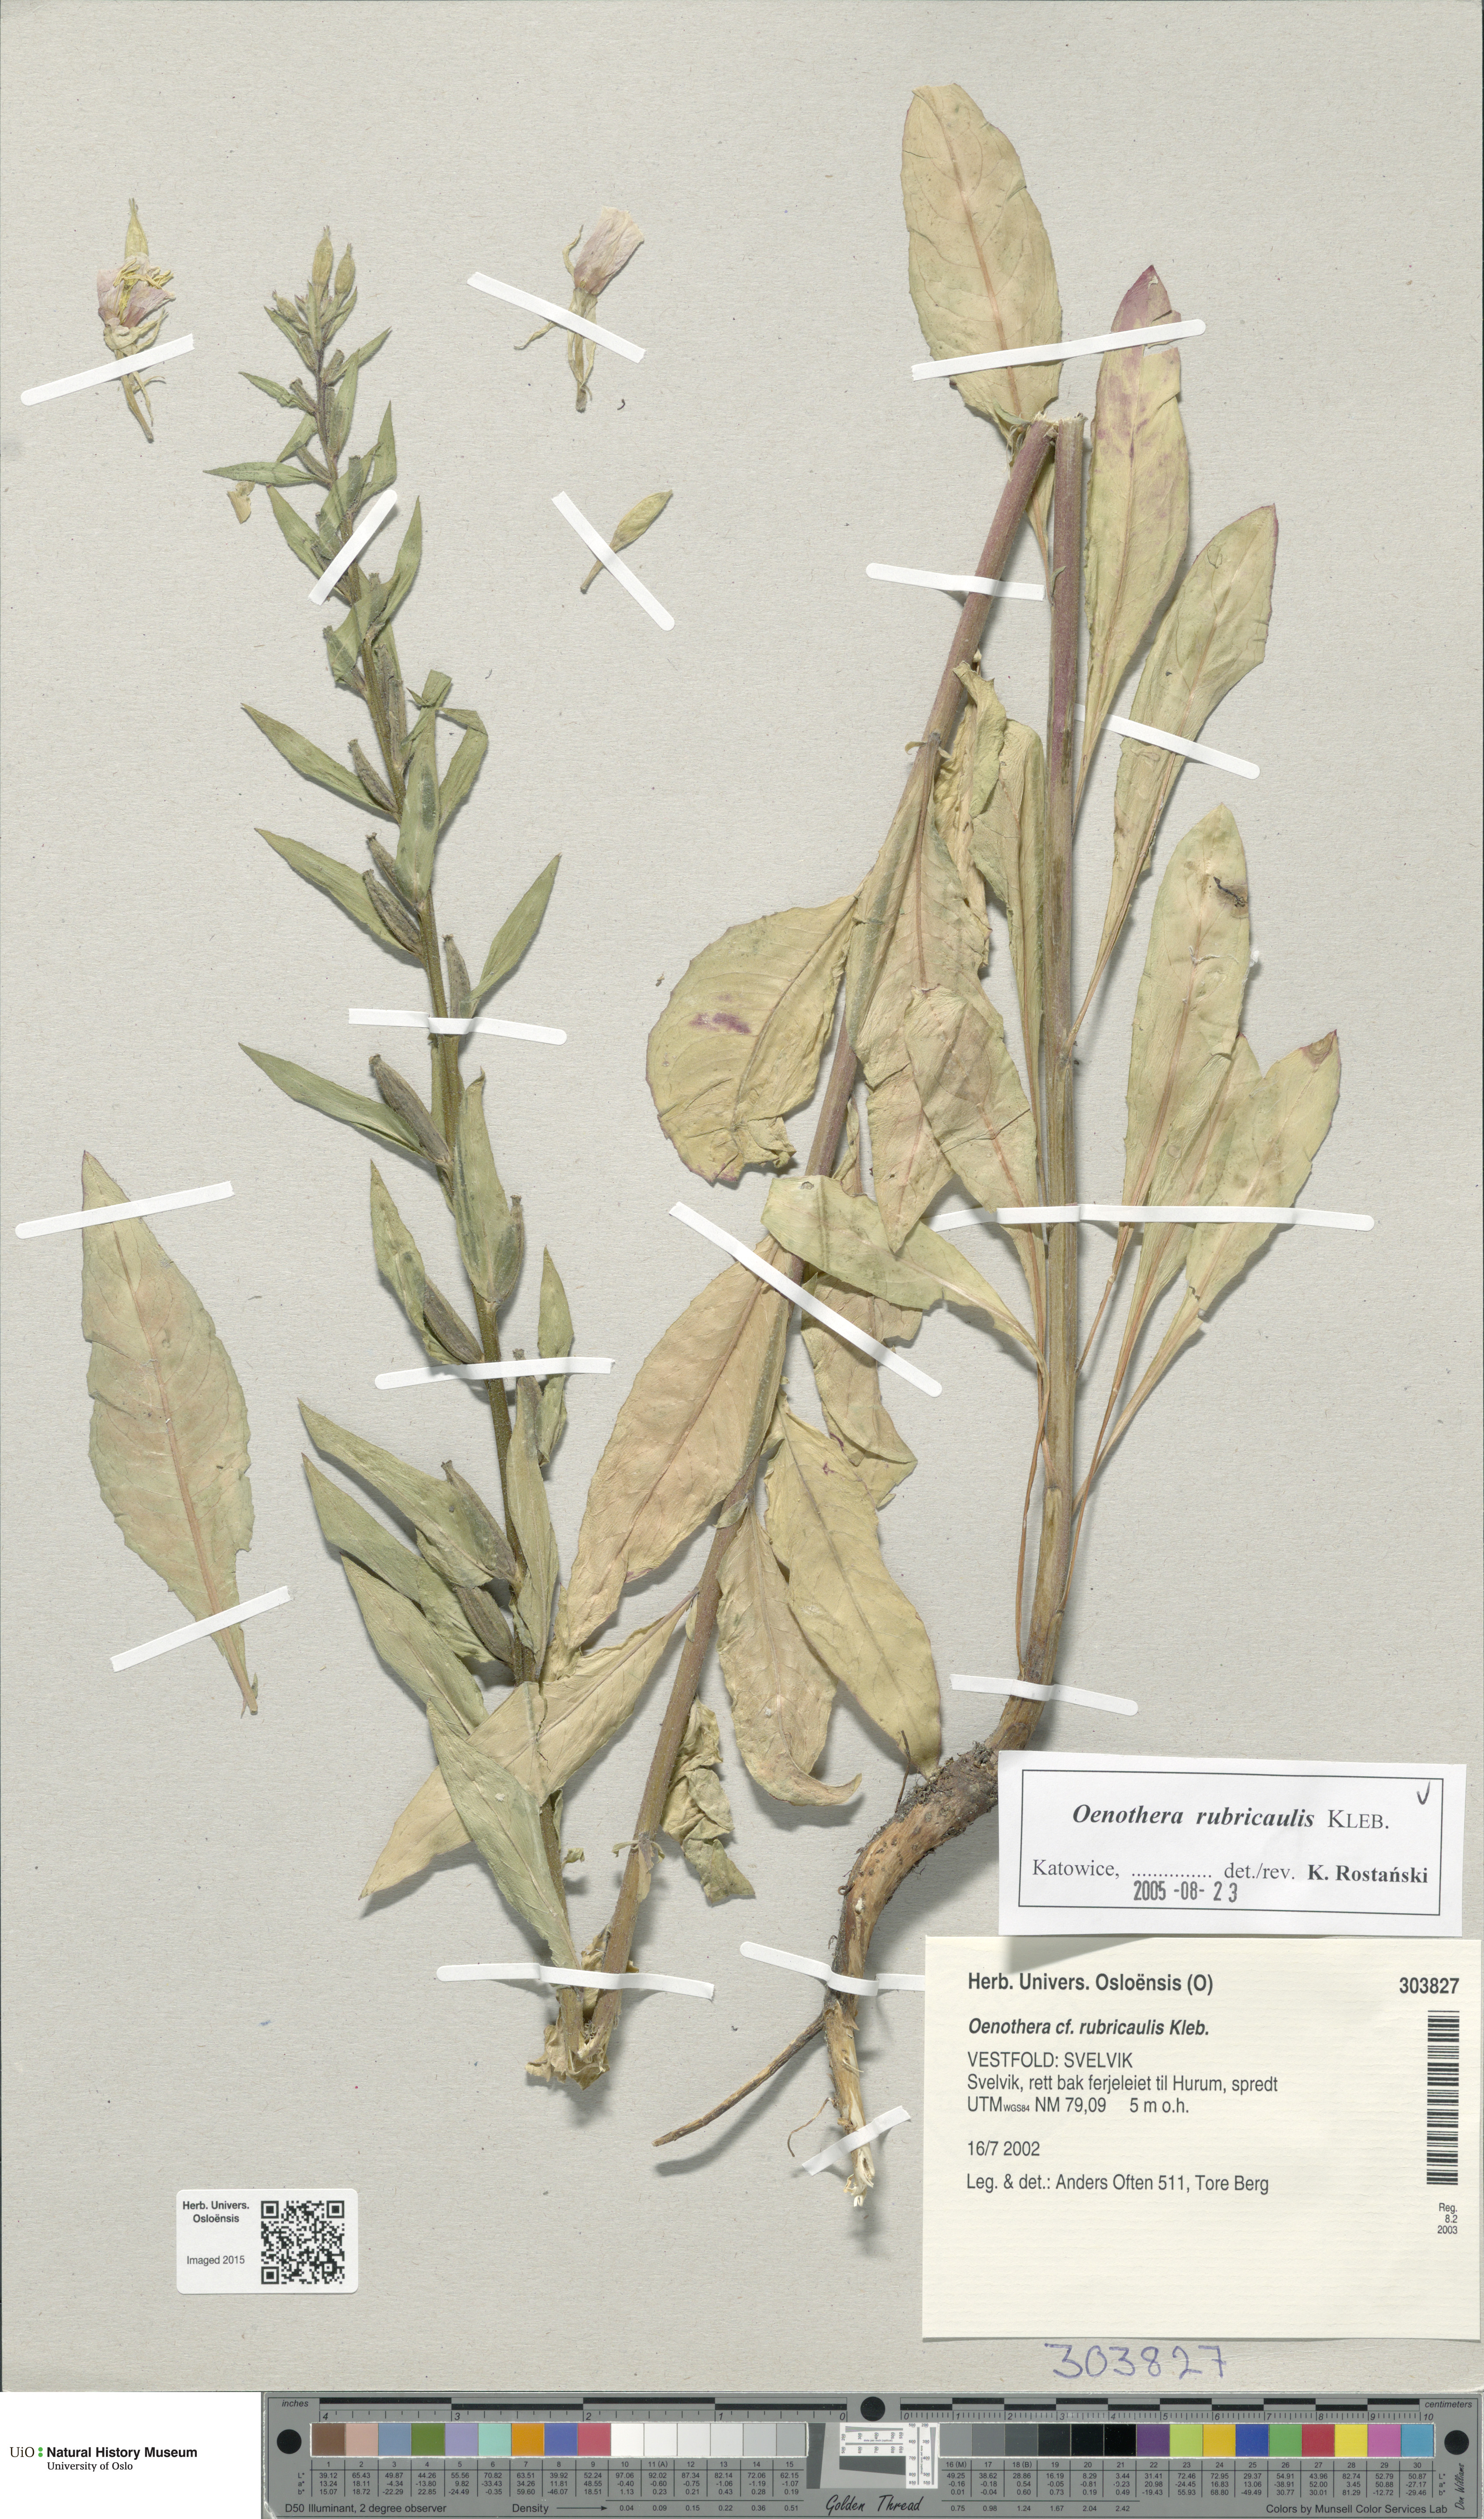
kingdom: Plantae
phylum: Tracheophyta
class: Magnoliopsida
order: Myrtales
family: Onagraceae
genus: Oenothera
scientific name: Oenothera biennis
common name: Common evening-primrose
